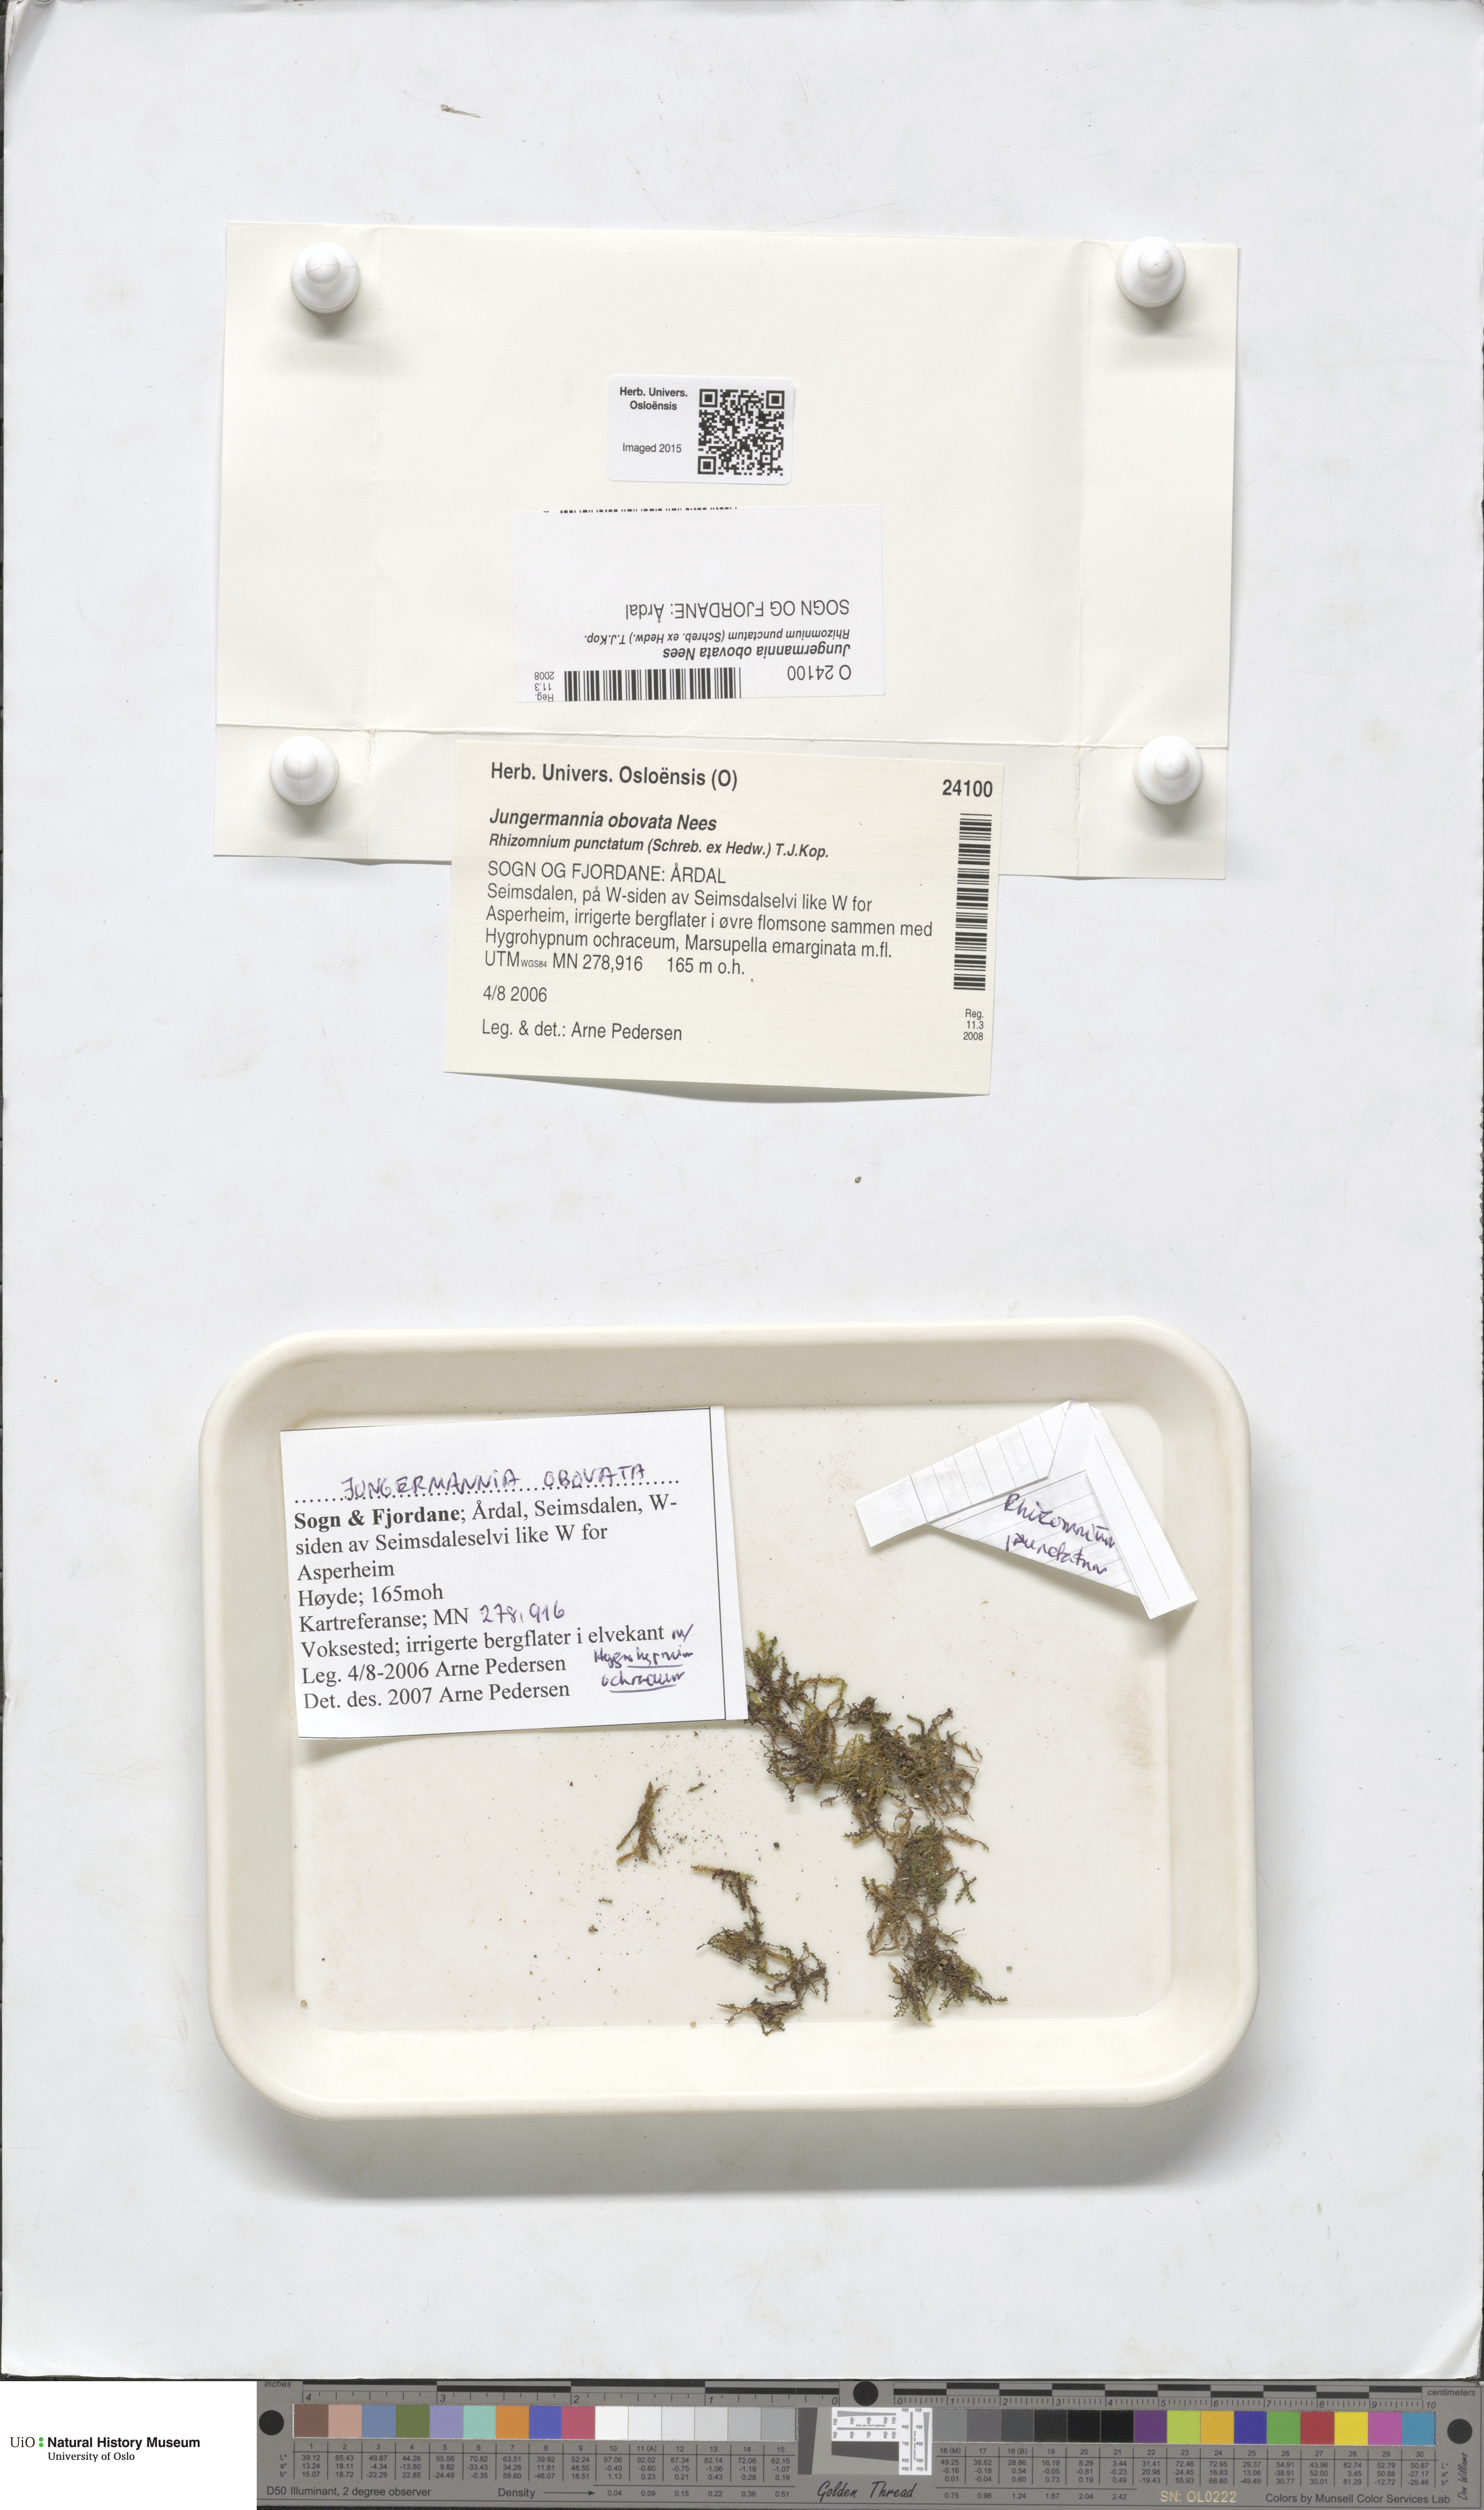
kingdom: Plantae
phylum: Marchantiophyta
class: Jungermanniopsida
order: Jungermanniales
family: Solenostomataceae
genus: Solenostoma
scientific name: Solenostoma obovatum
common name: Egg flapwort
